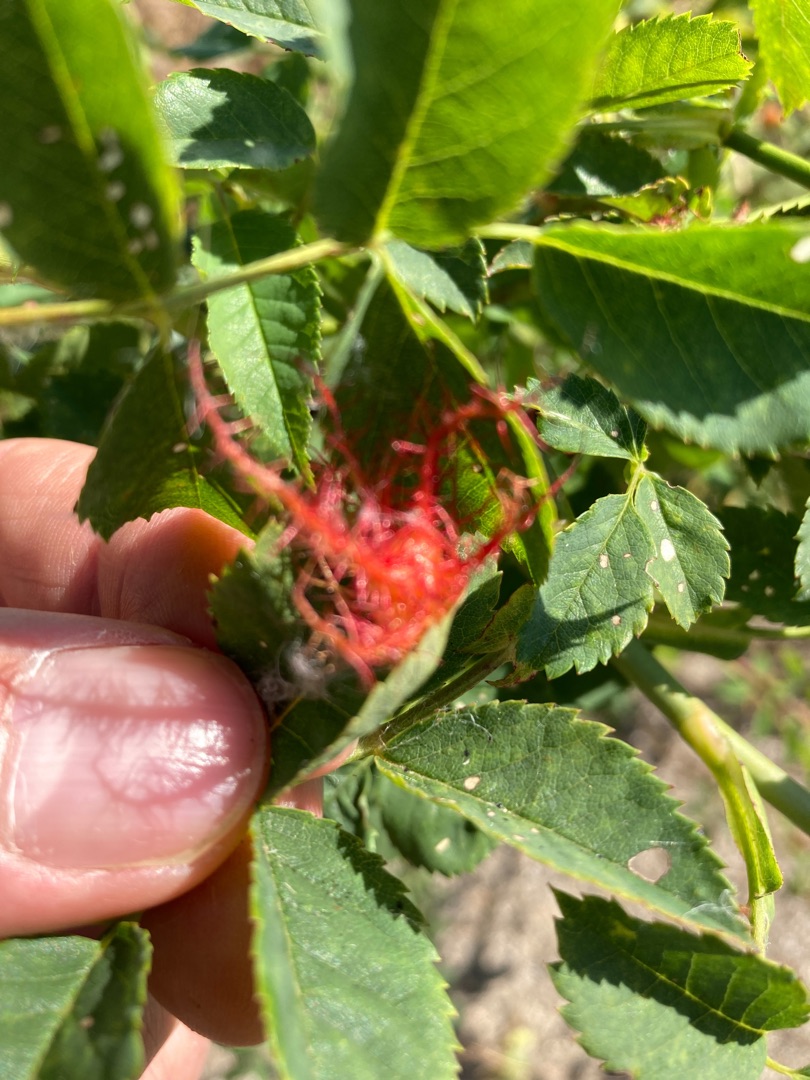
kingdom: Animalia
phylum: Arthropoda
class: Insecta
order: Hymenoptera
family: Cynipidae
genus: Diplolepis
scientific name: Diplolepis rosae
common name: Bedeguargalhveps
